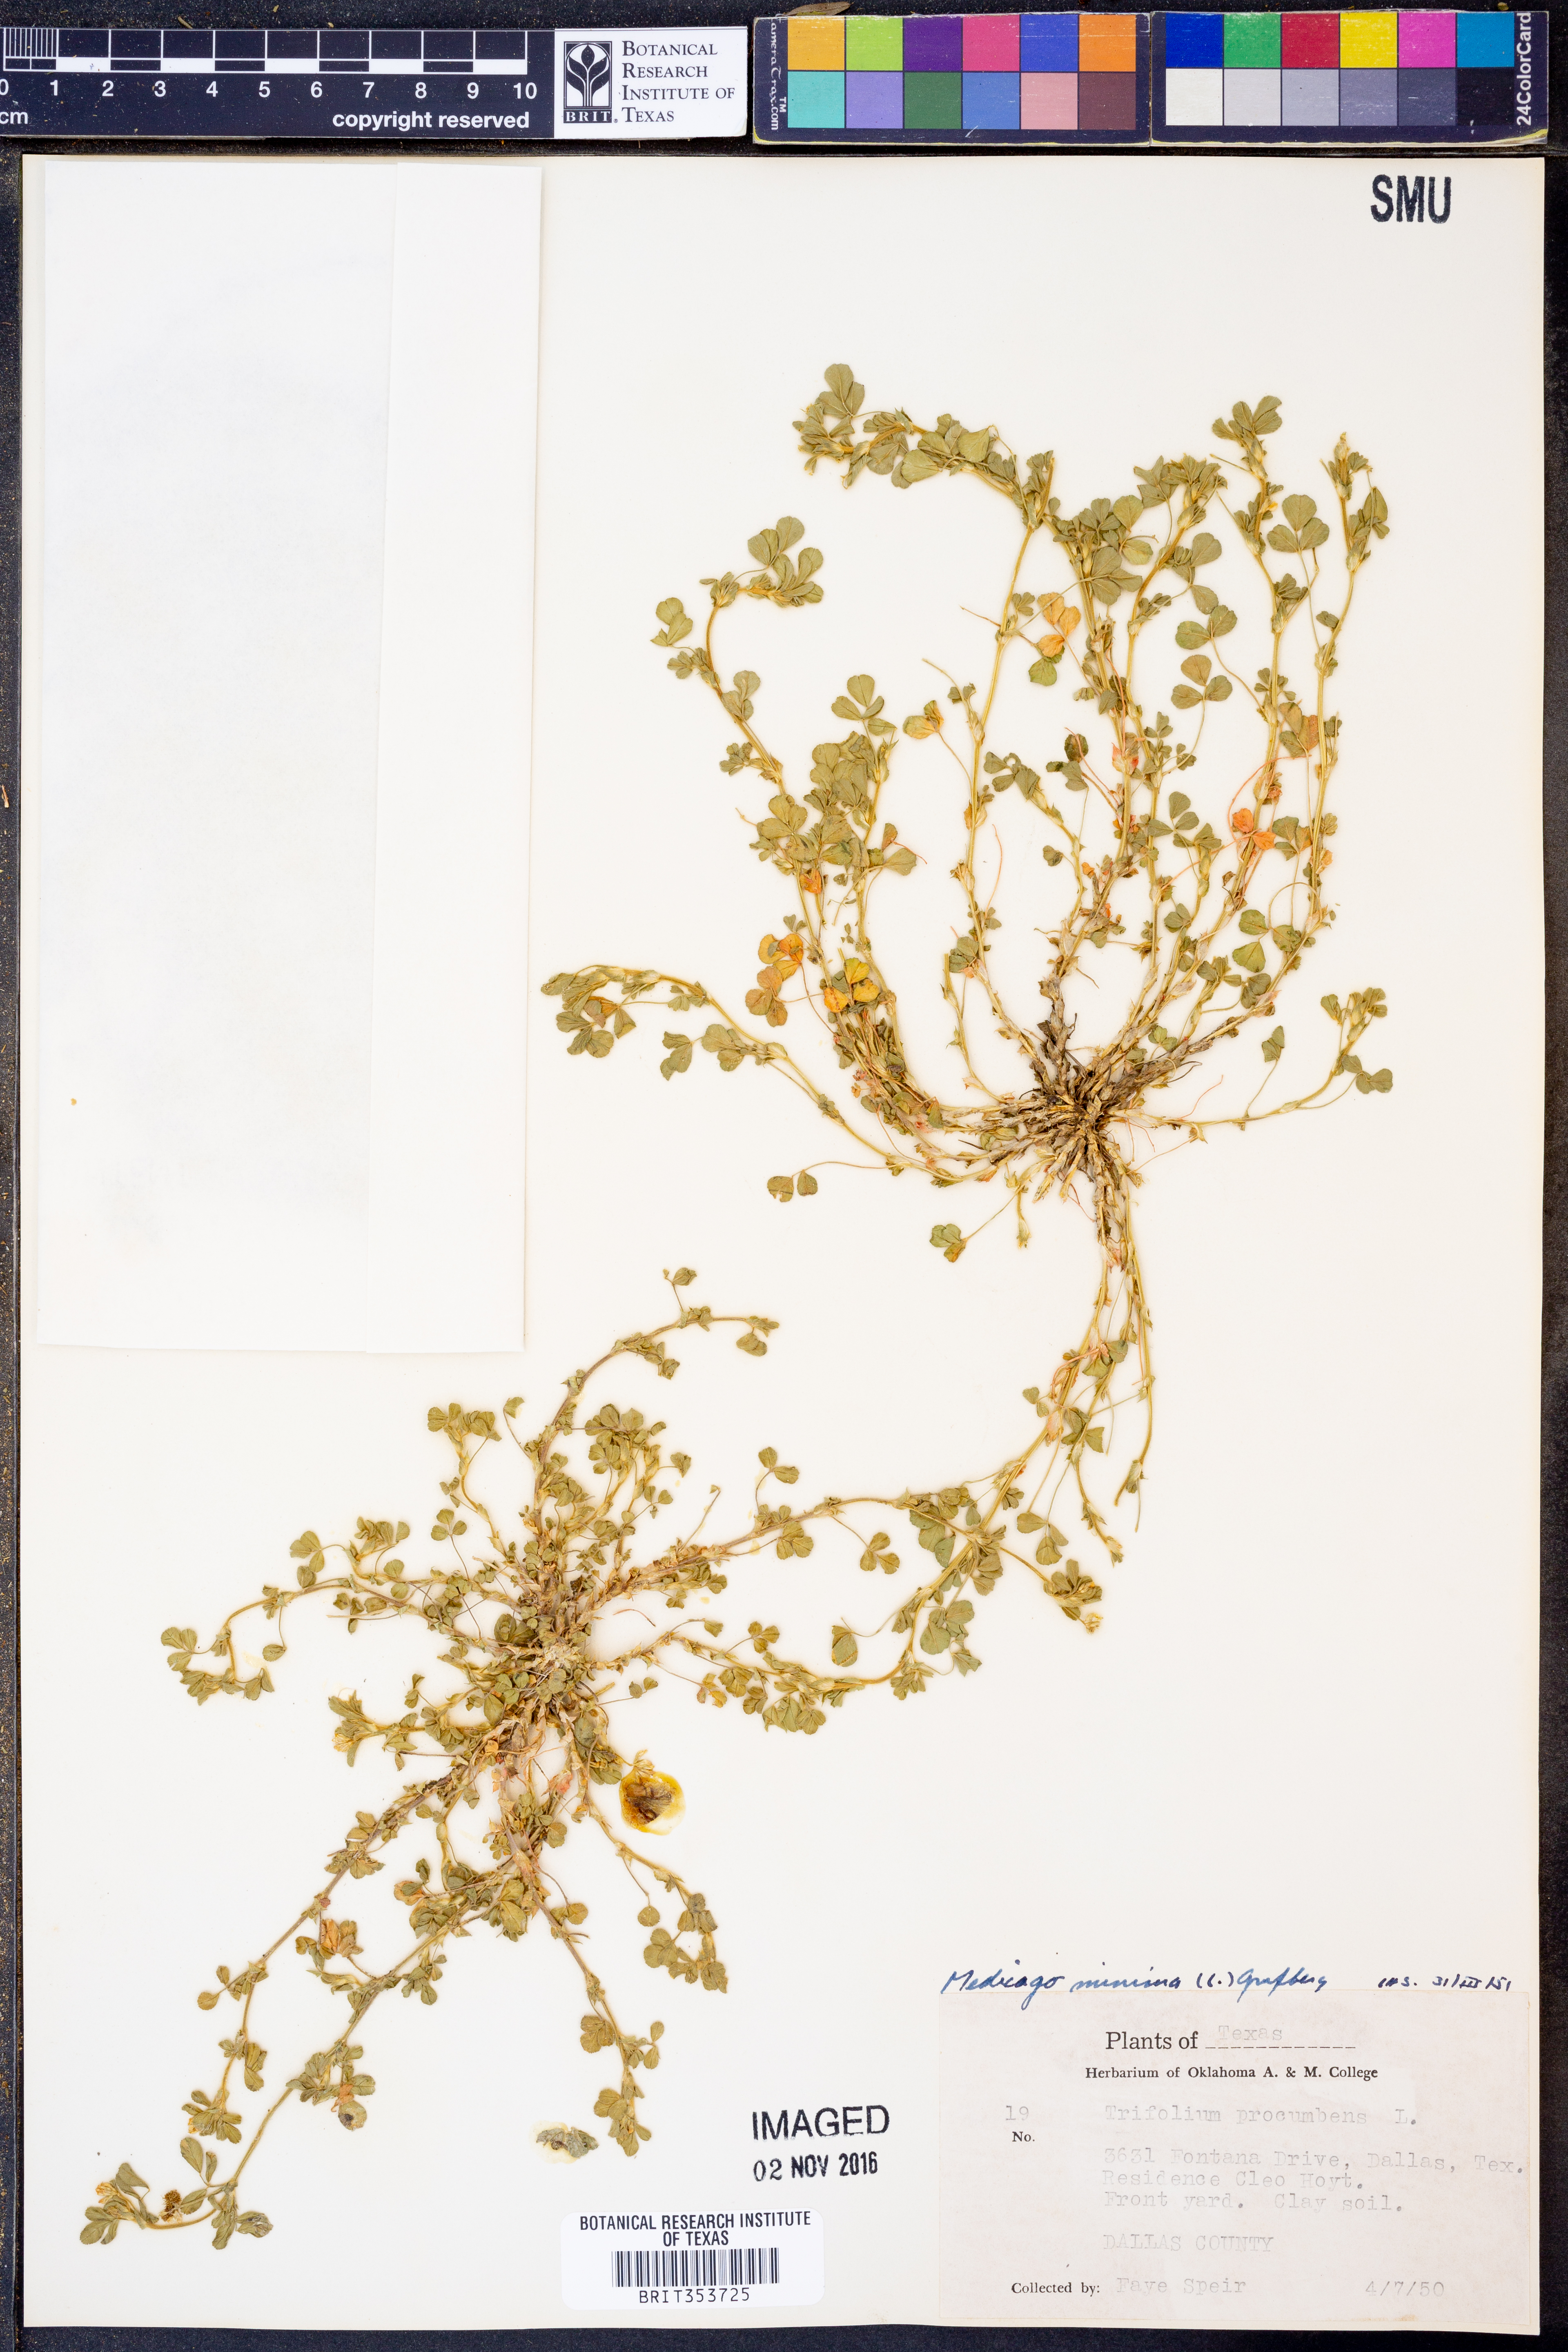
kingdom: Plantae
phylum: Tracheophyta
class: Magnoliopsida
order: Fabales
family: Fabaceae
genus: Medicago
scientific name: Medicago minima
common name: Little bur-clover
